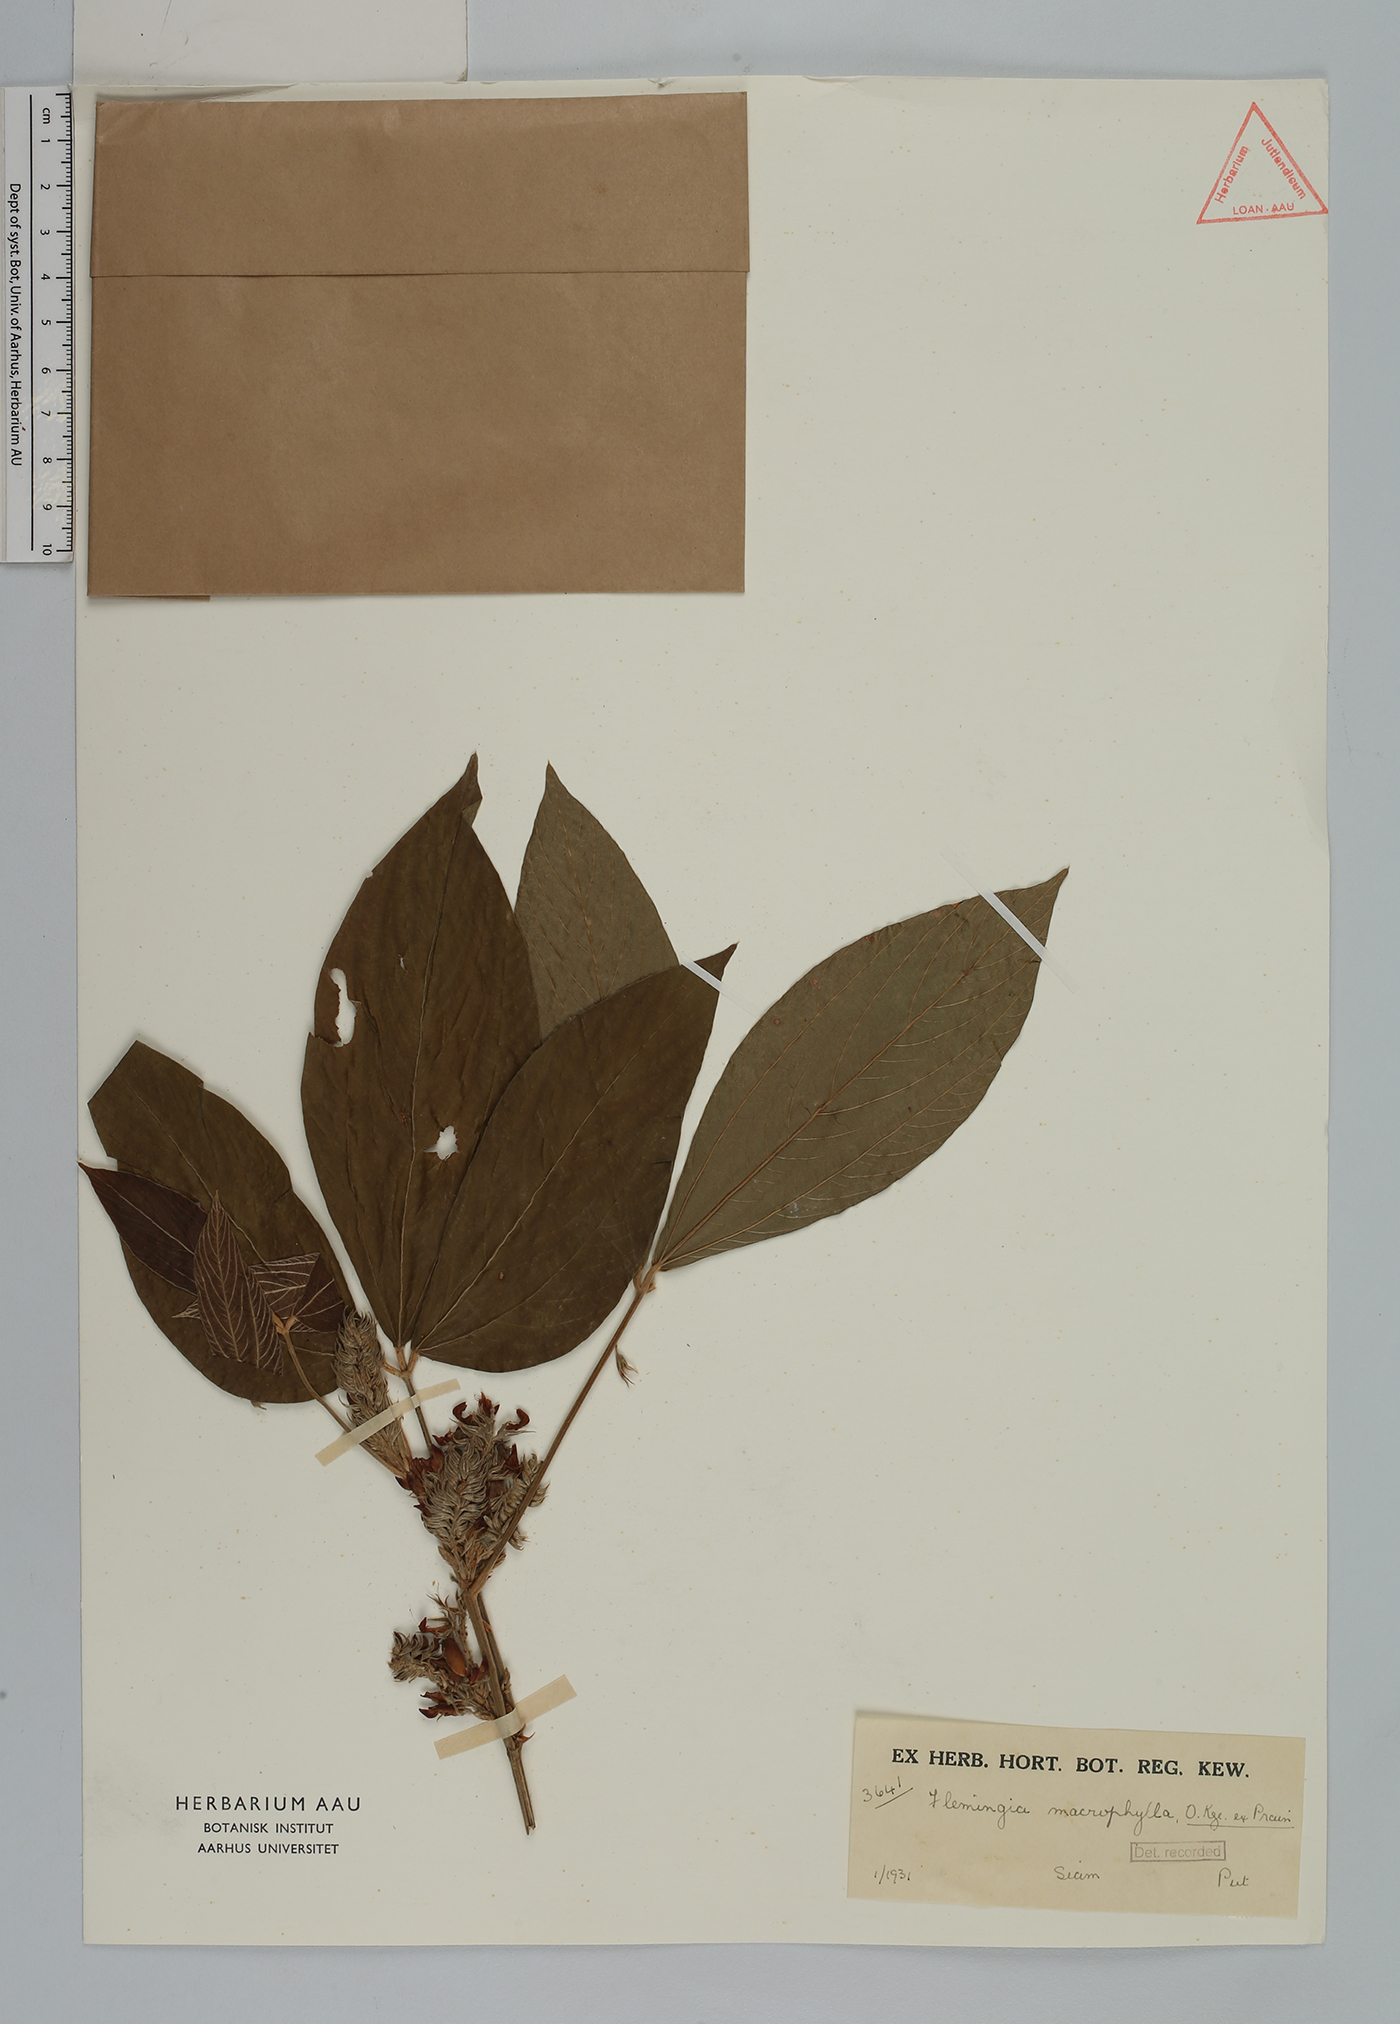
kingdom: Plantae
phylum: Tracheophyta
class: Magnoliopsida
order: Fabales
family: Fabaceae
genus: Flemingia
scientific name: Flemingia macrophylla
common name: Flemingia
